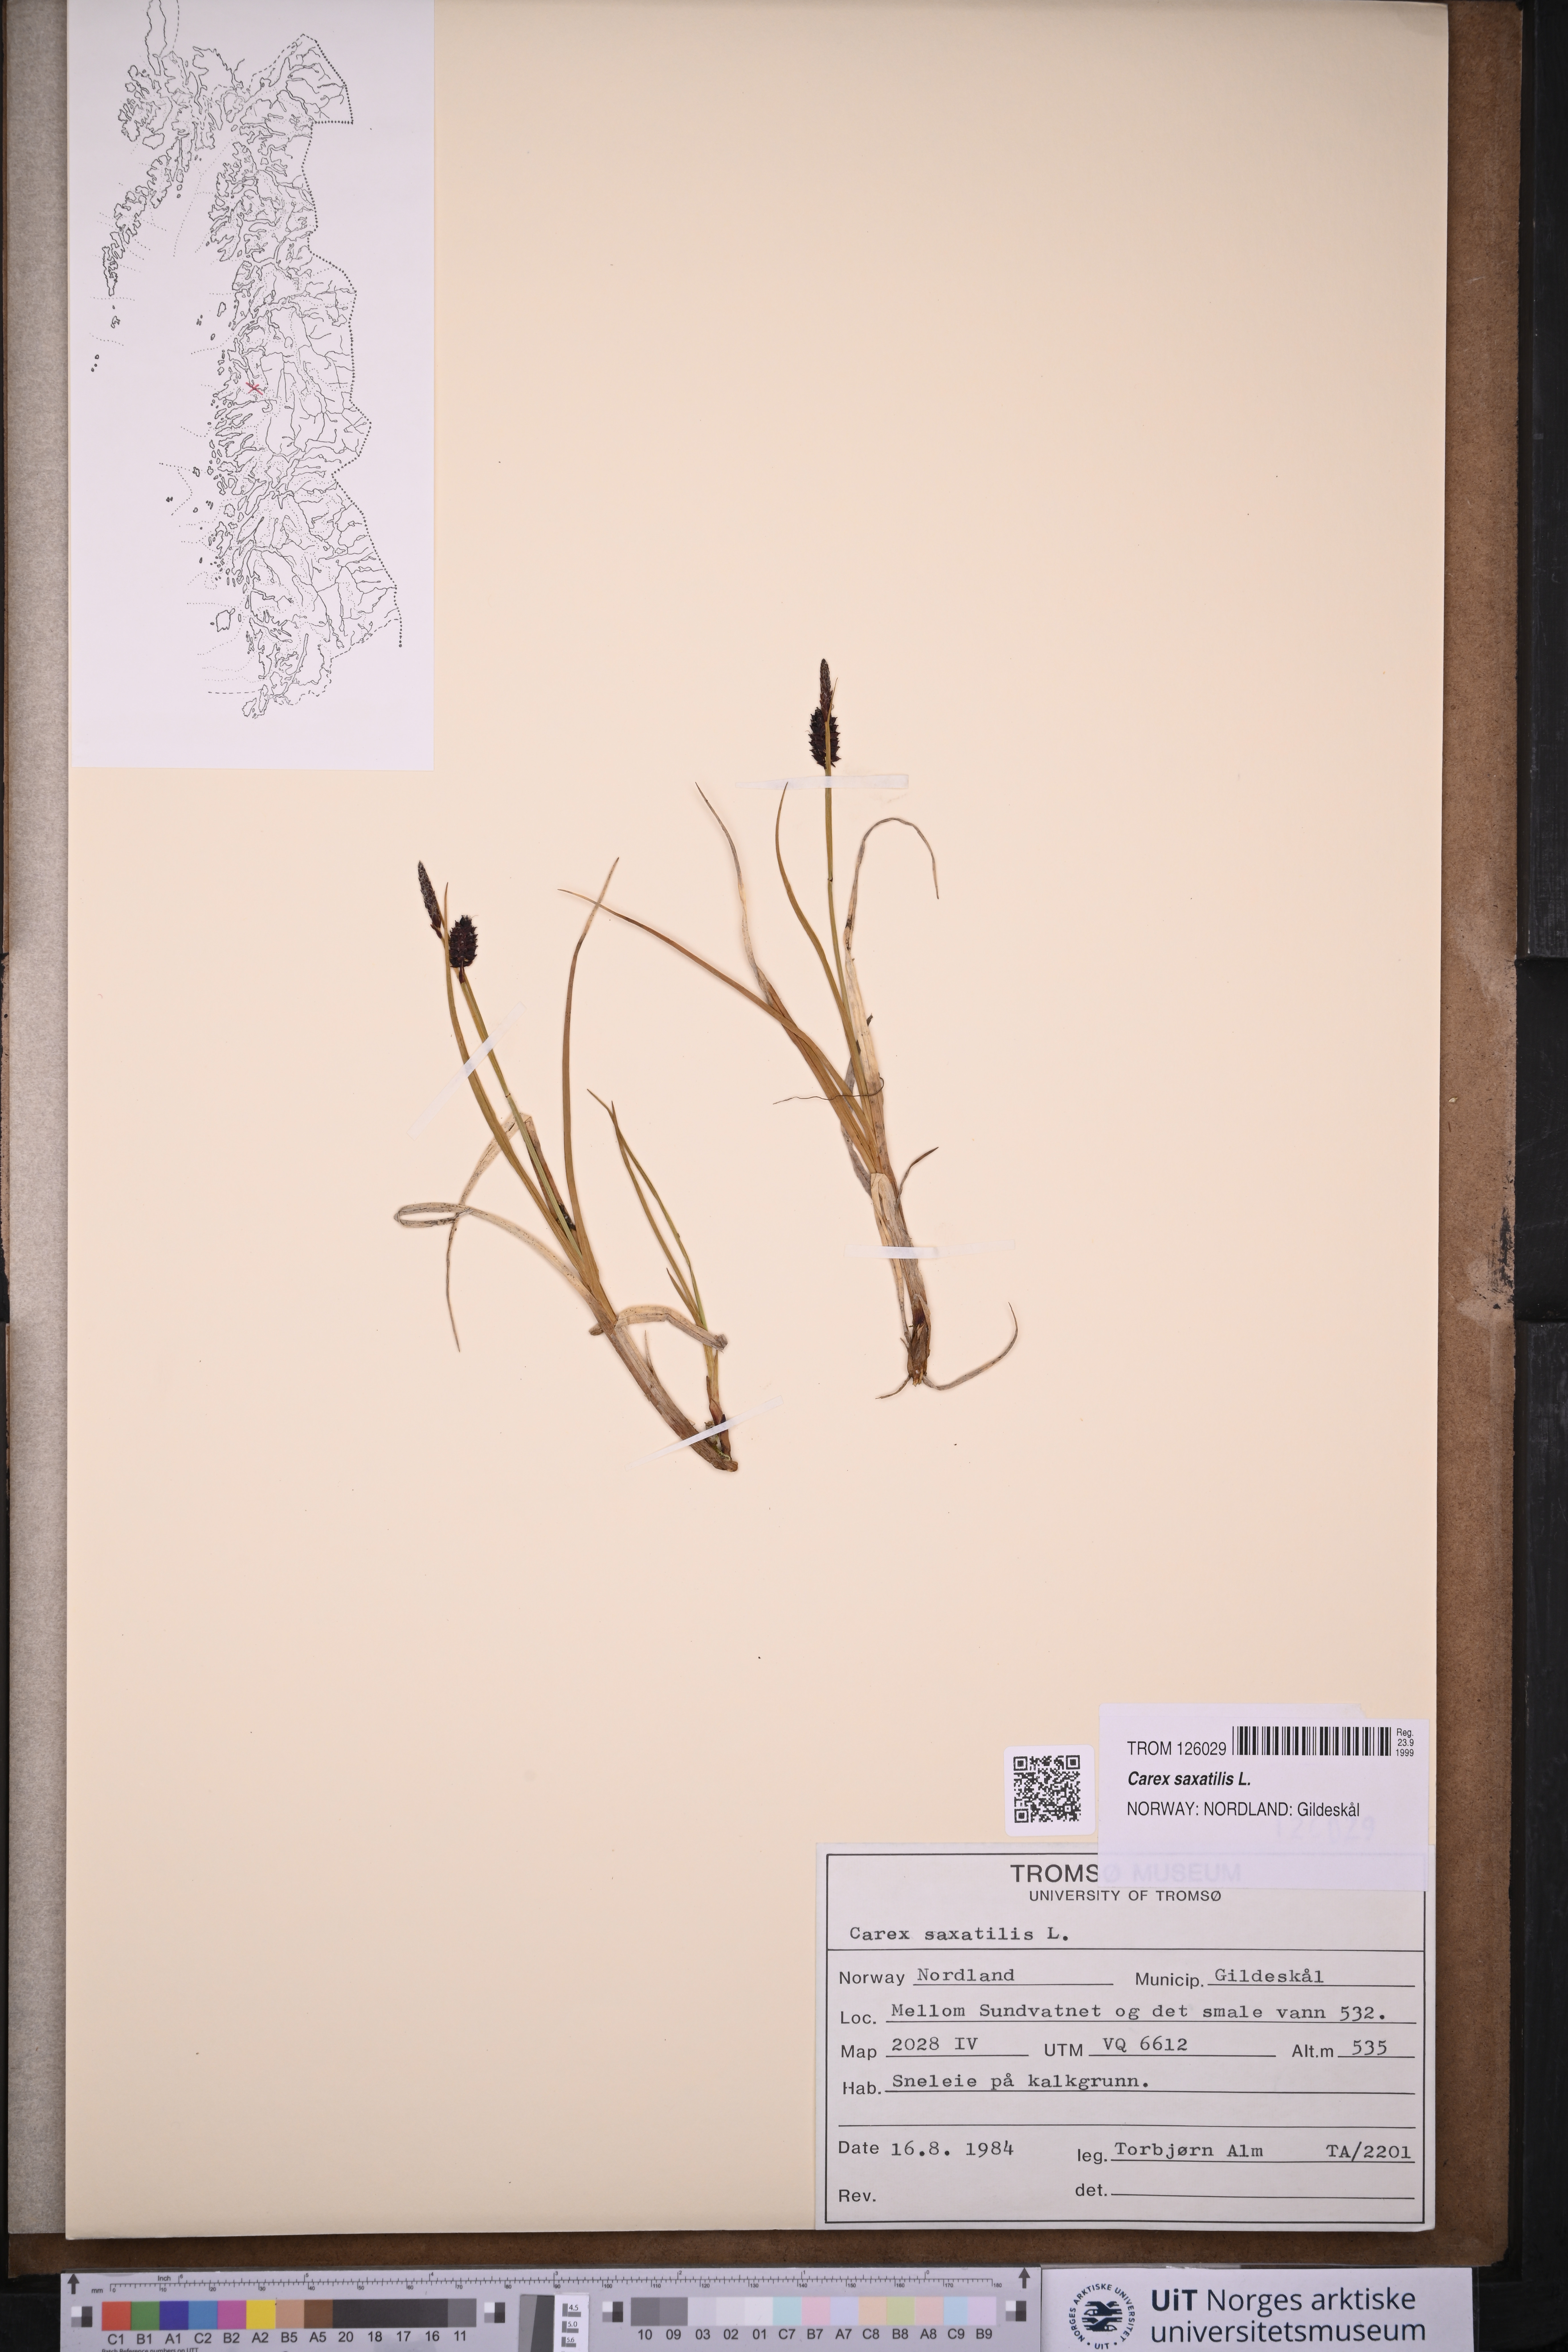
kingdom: Plantae
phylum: Tracheophyta
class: Liliopsida
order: Poales
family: Cyperaceae
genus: Carex
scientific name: Carex saxatilis
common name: Russet sedge
